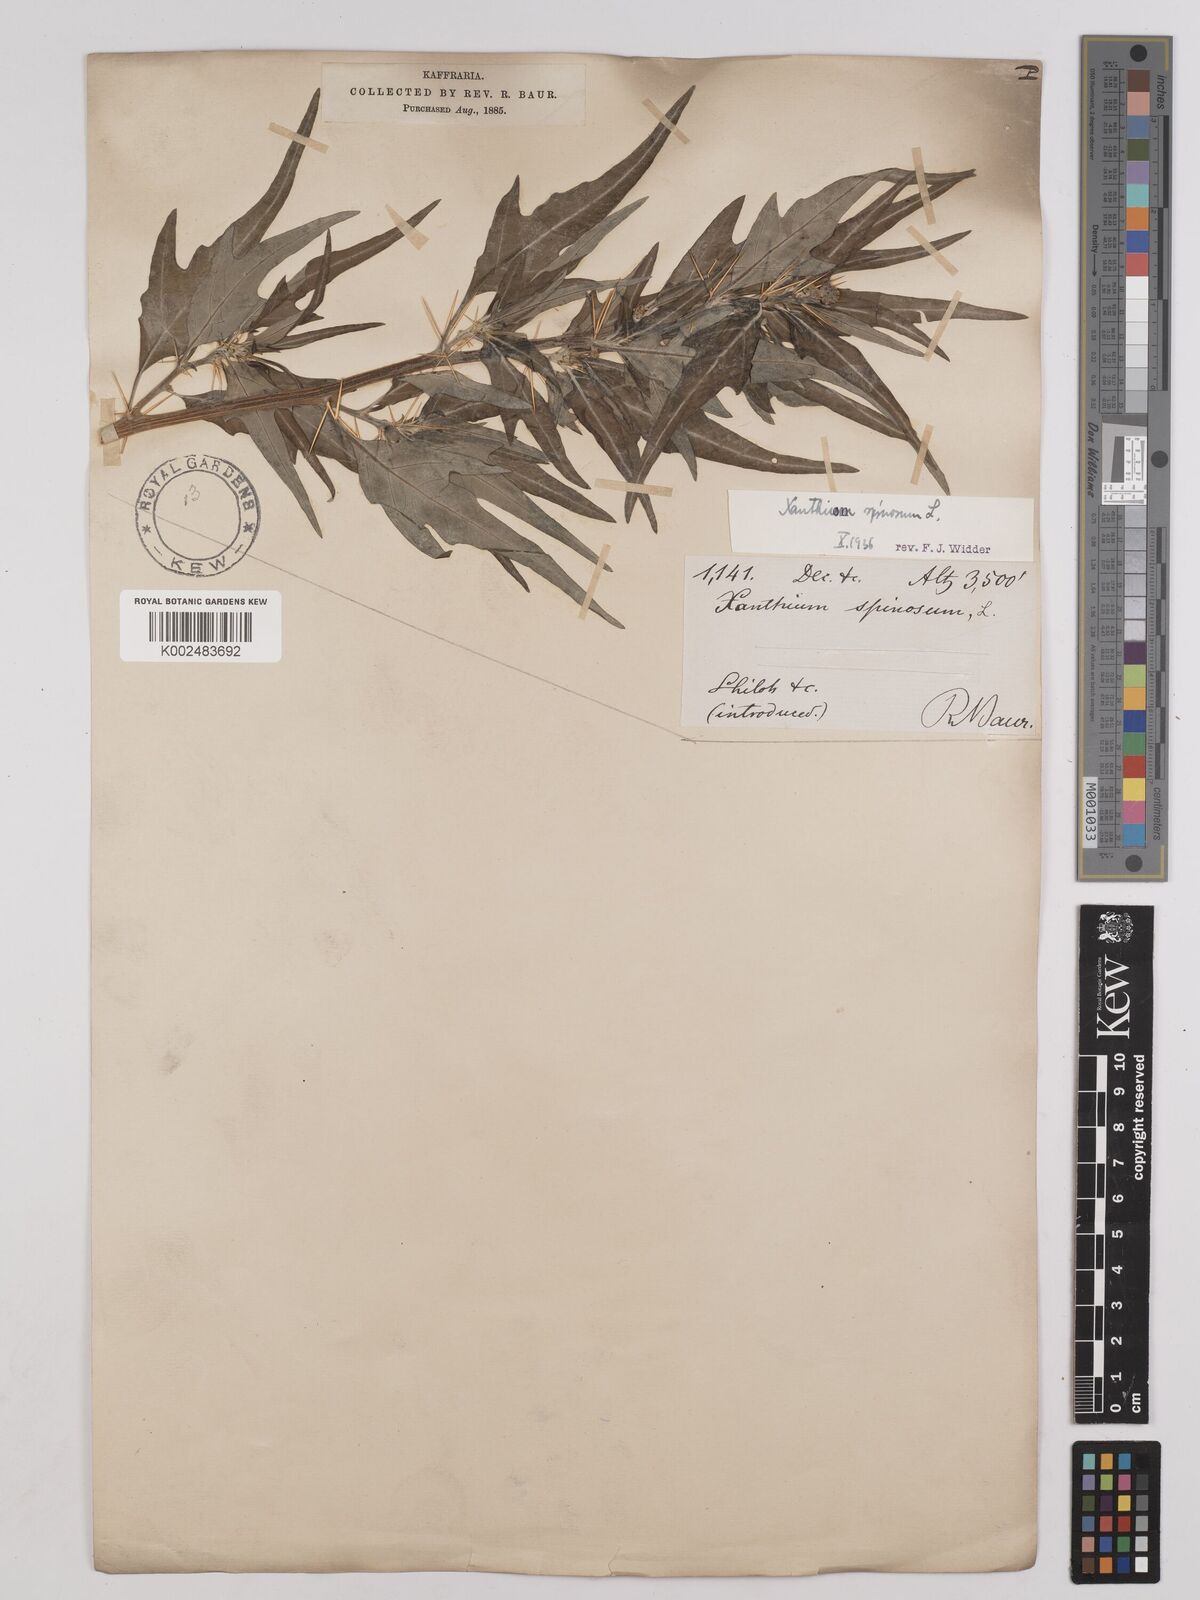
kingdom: Plantae
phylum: Tracheophyta
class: Magnoliopsida
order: Asterales
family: Asteraceae
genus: Xanthium
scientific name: Xanthium spinosum
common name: Spiny cocklebur
